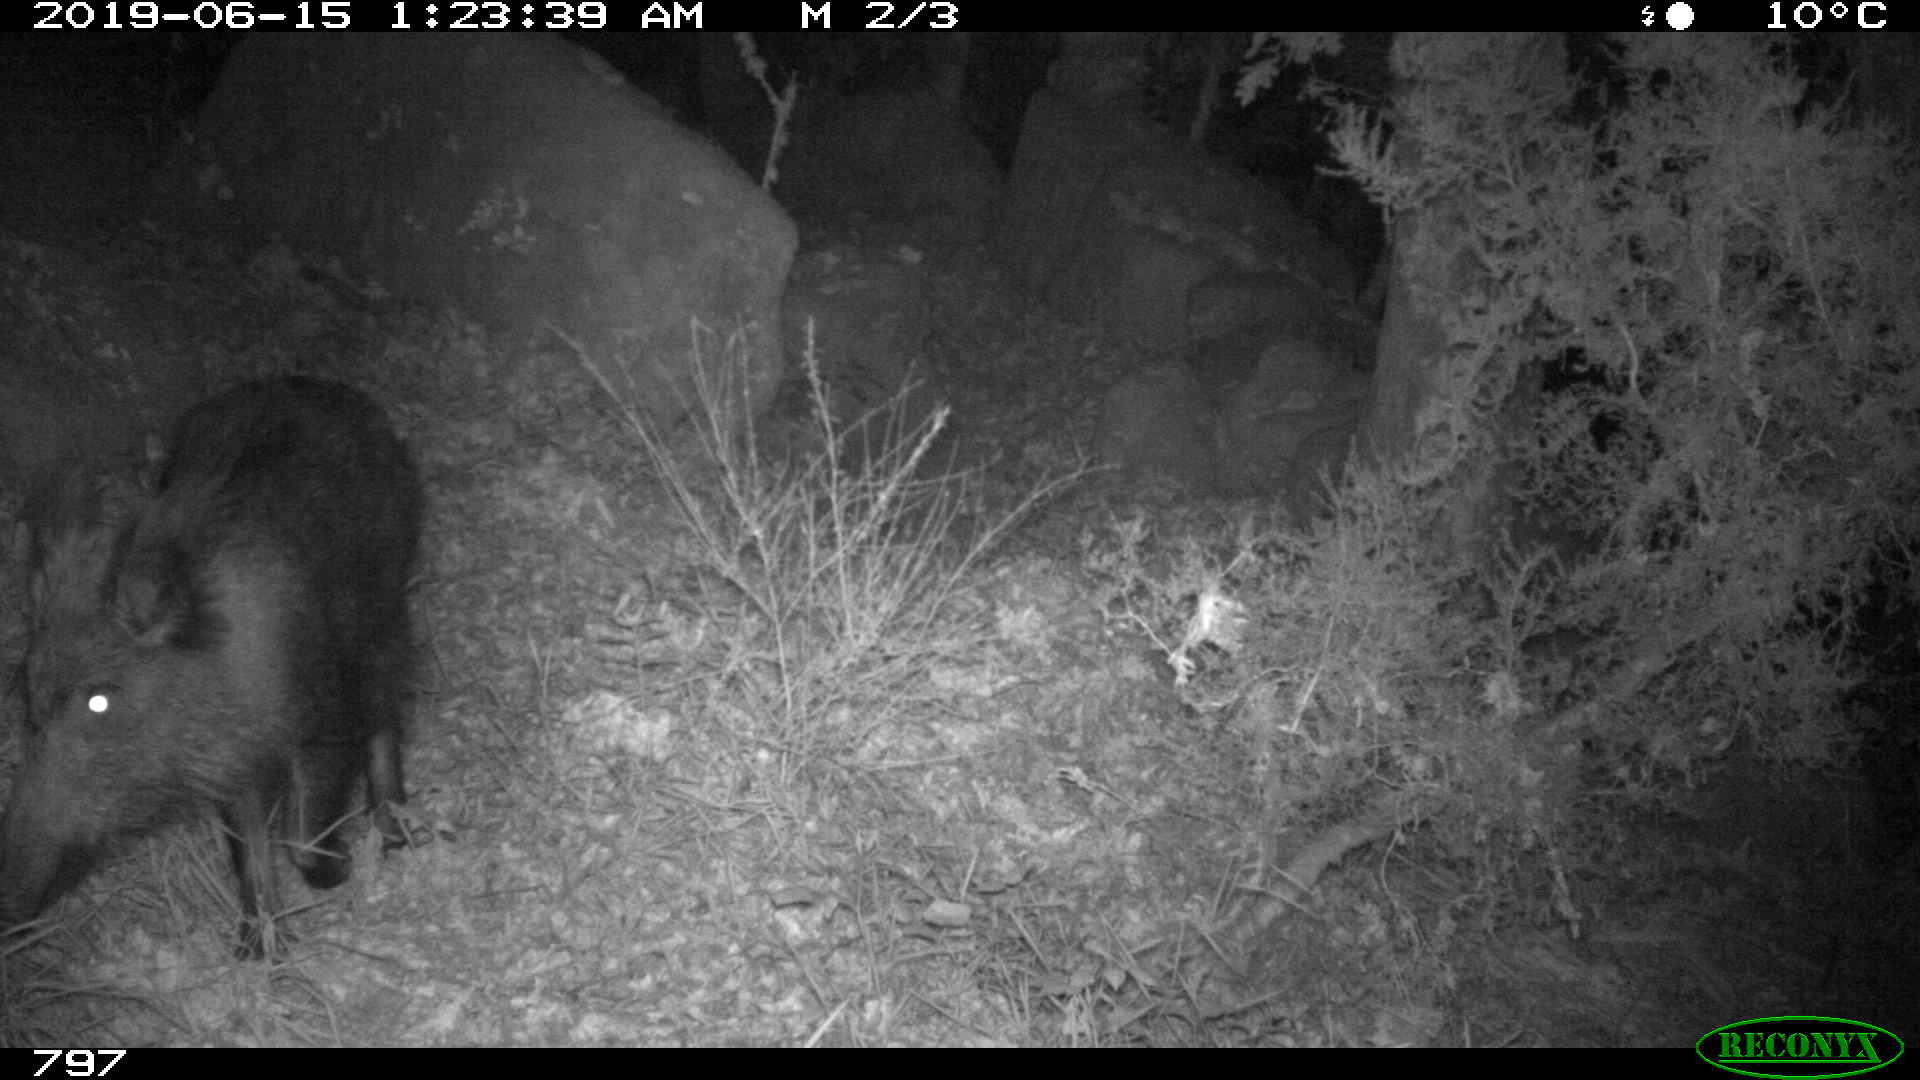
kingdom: Animalia
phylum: Chordata
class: Mammalia
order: Artiodactyla
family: Suidae
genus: Sus
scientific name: Sus scrofa
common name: Wild boar
